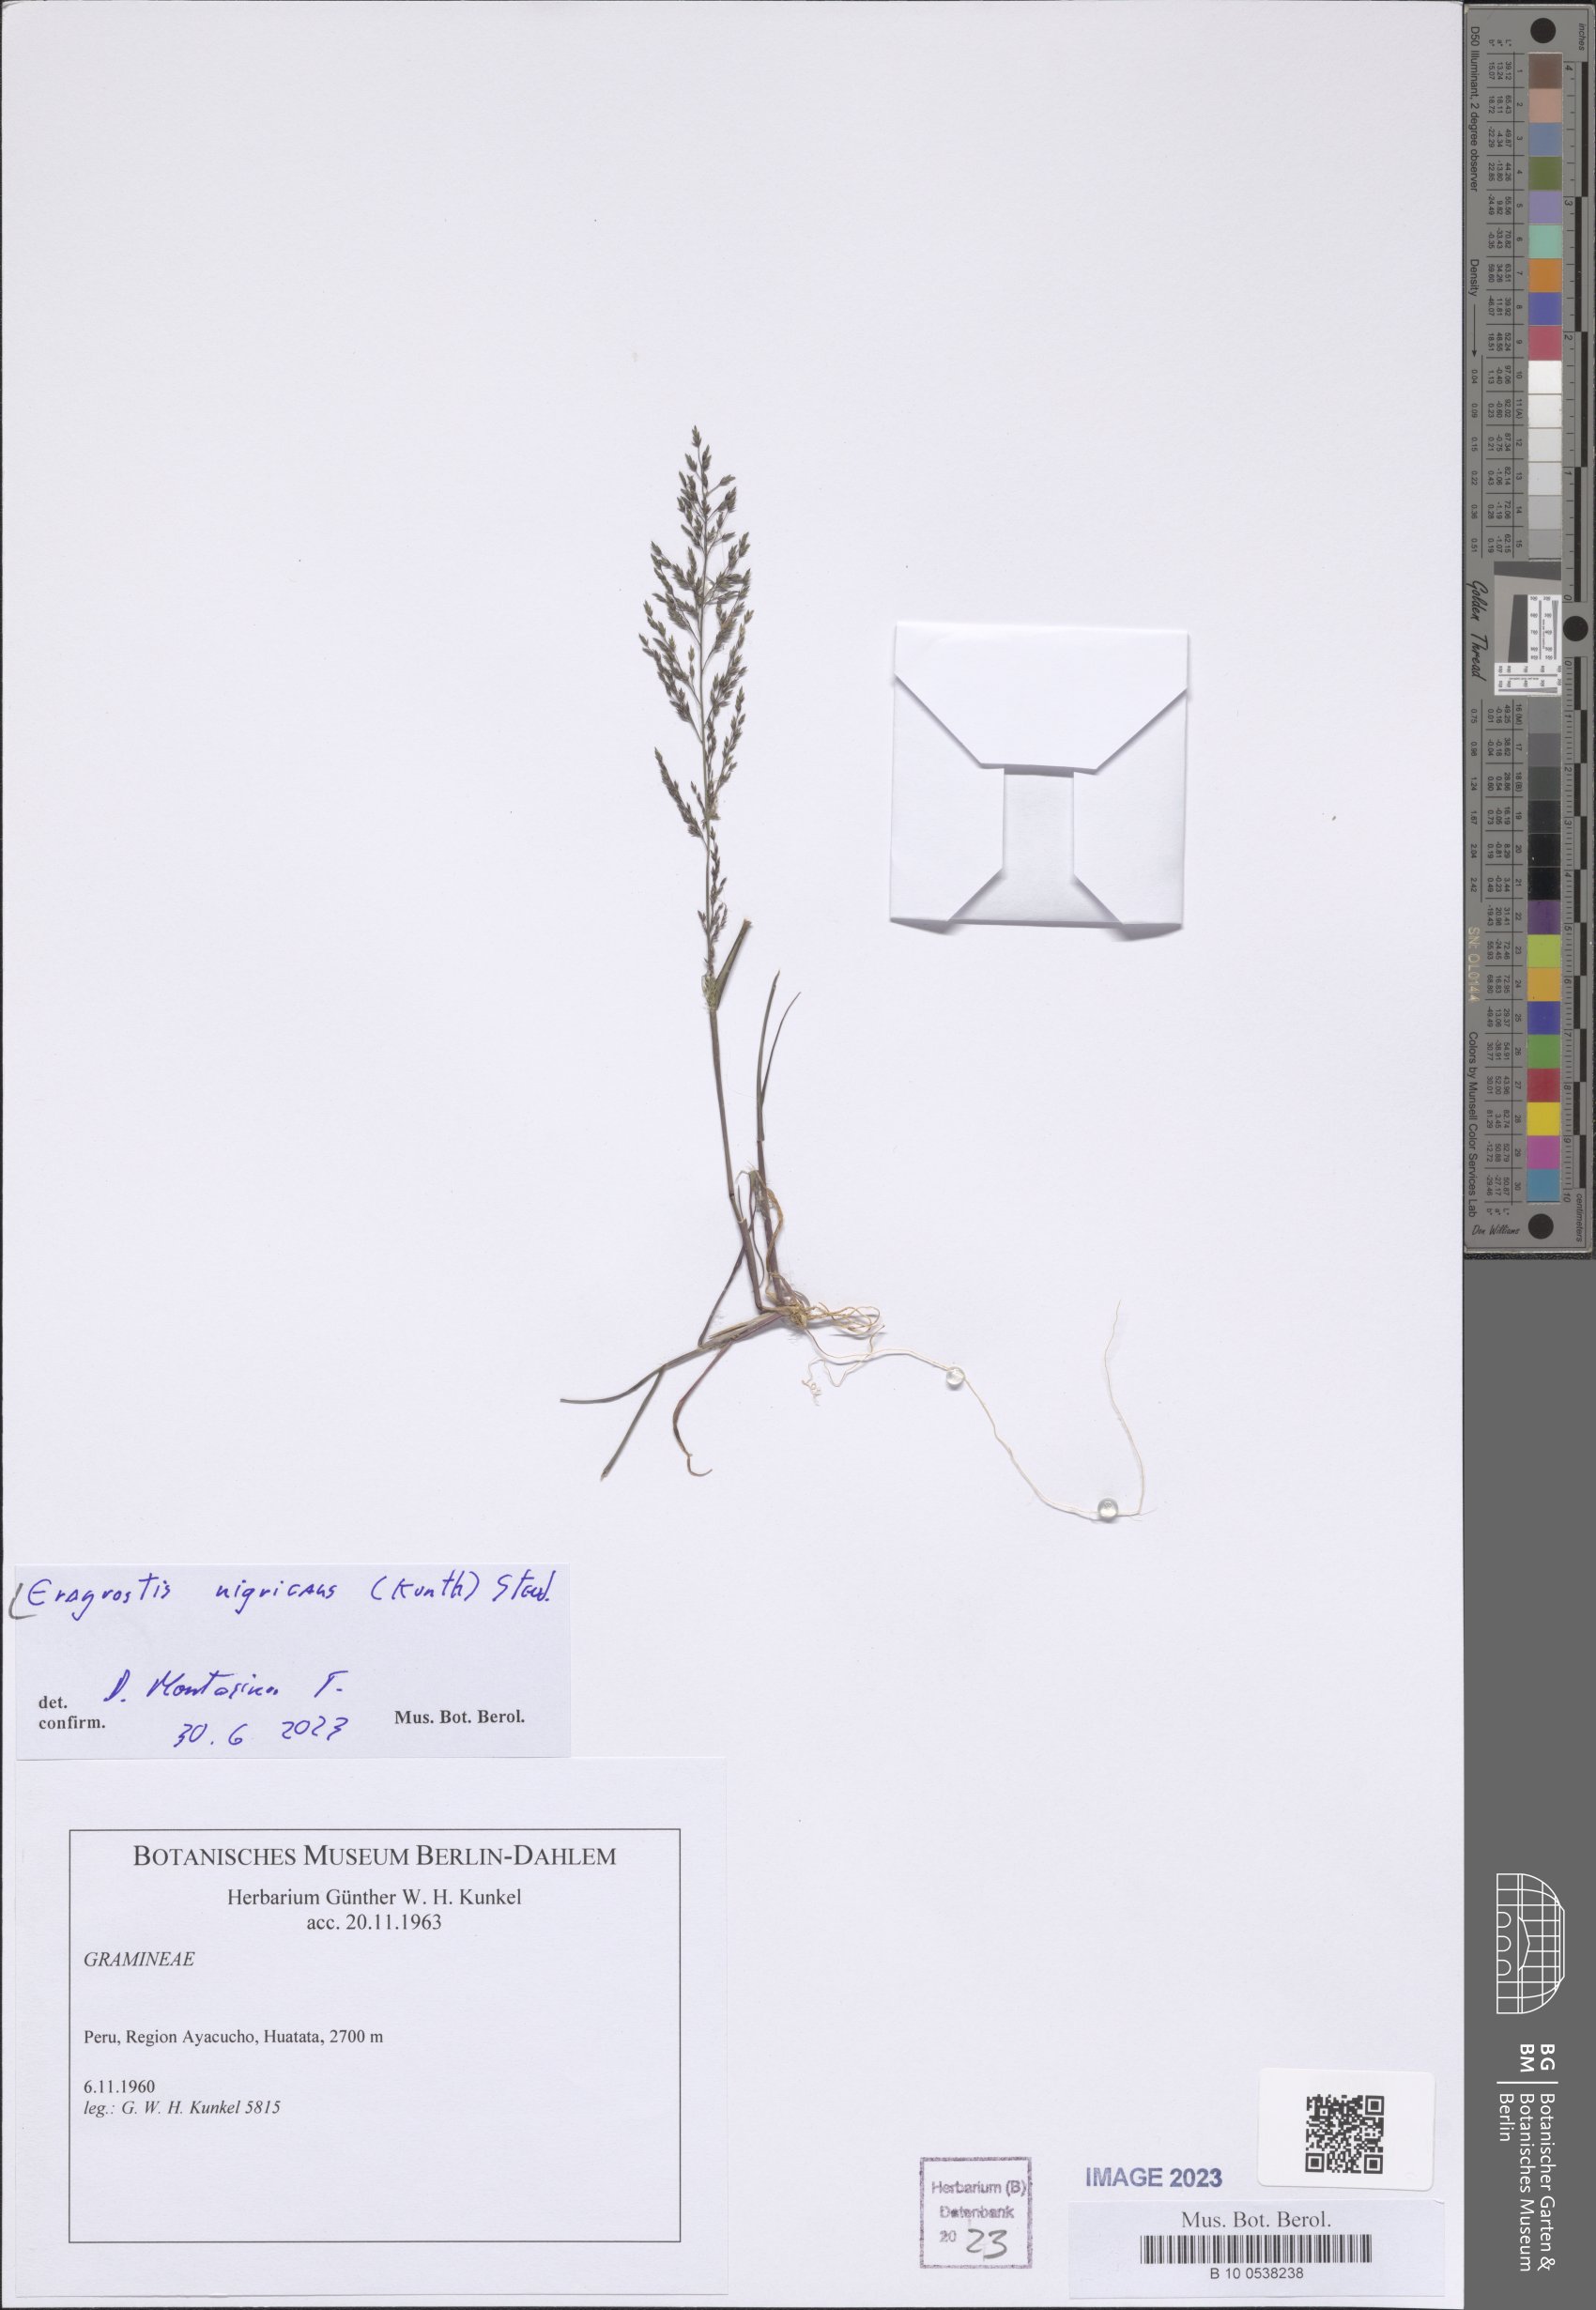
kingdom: Plantae
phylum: Tracheophyta
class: Liliopsida
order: Poales
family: Poaceae
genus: Eragrostis
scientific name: Eragrostis nigricans
